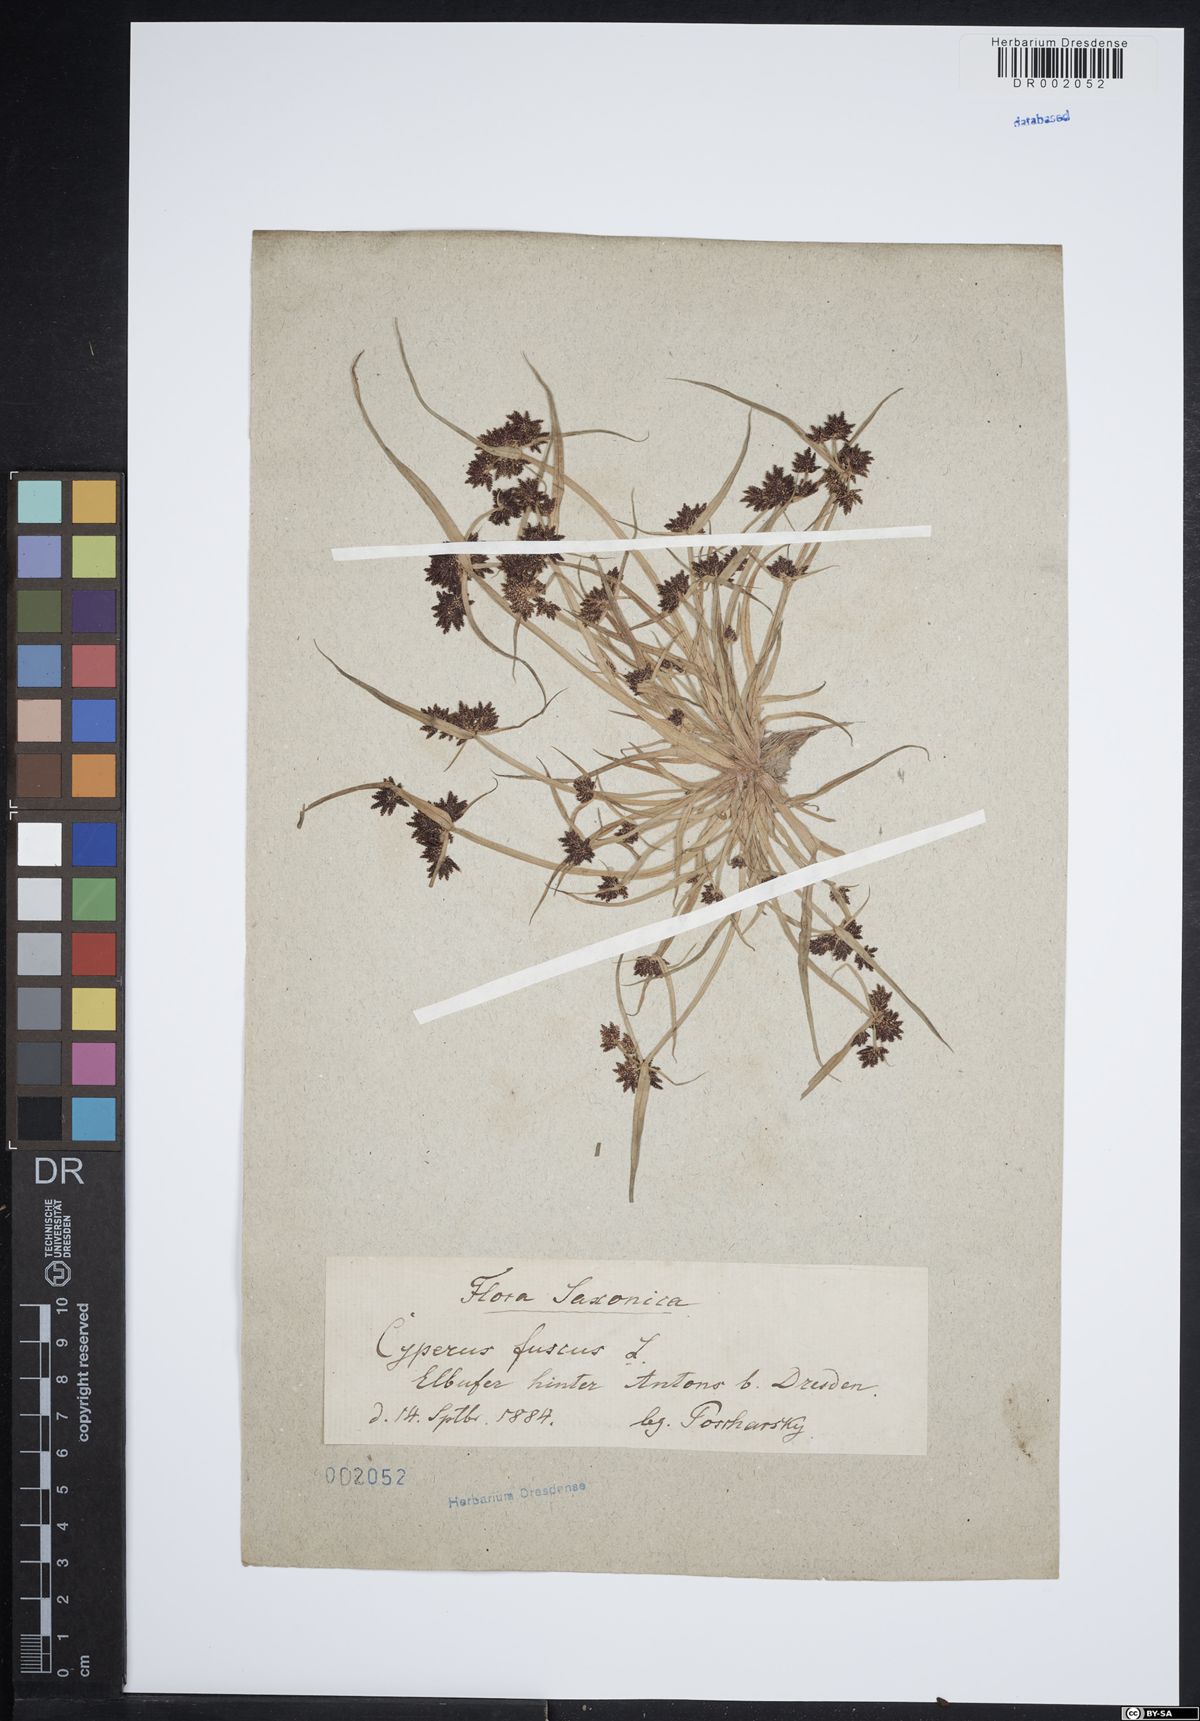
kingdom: Plantae
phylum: Tracheophyta
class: Liliopsida
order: Poales
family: Cyperaceae
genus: Cyperus
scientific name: Cyperus fuscus
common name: Brown galingale
